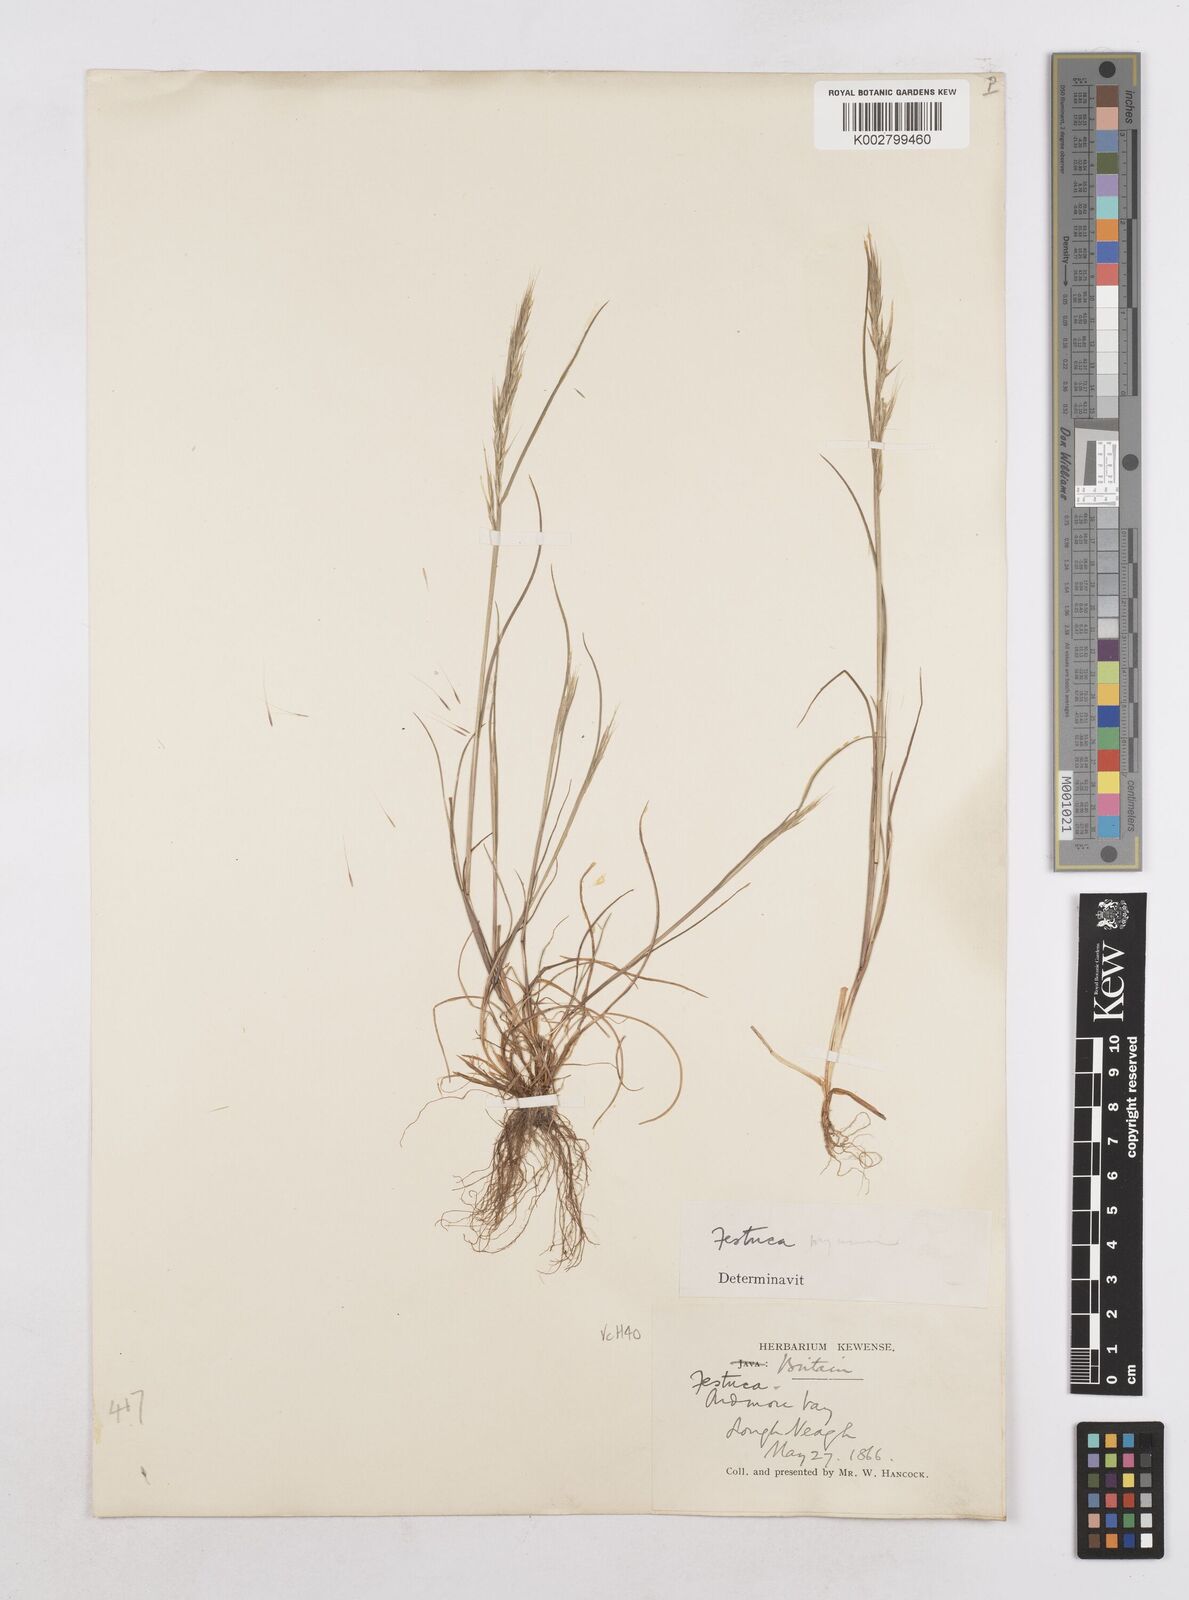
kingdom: Plantae
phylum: Tracheophyta
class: Liliopsida
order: Poales
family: Poaceae
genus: Festuca
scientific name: Festuca myuros
